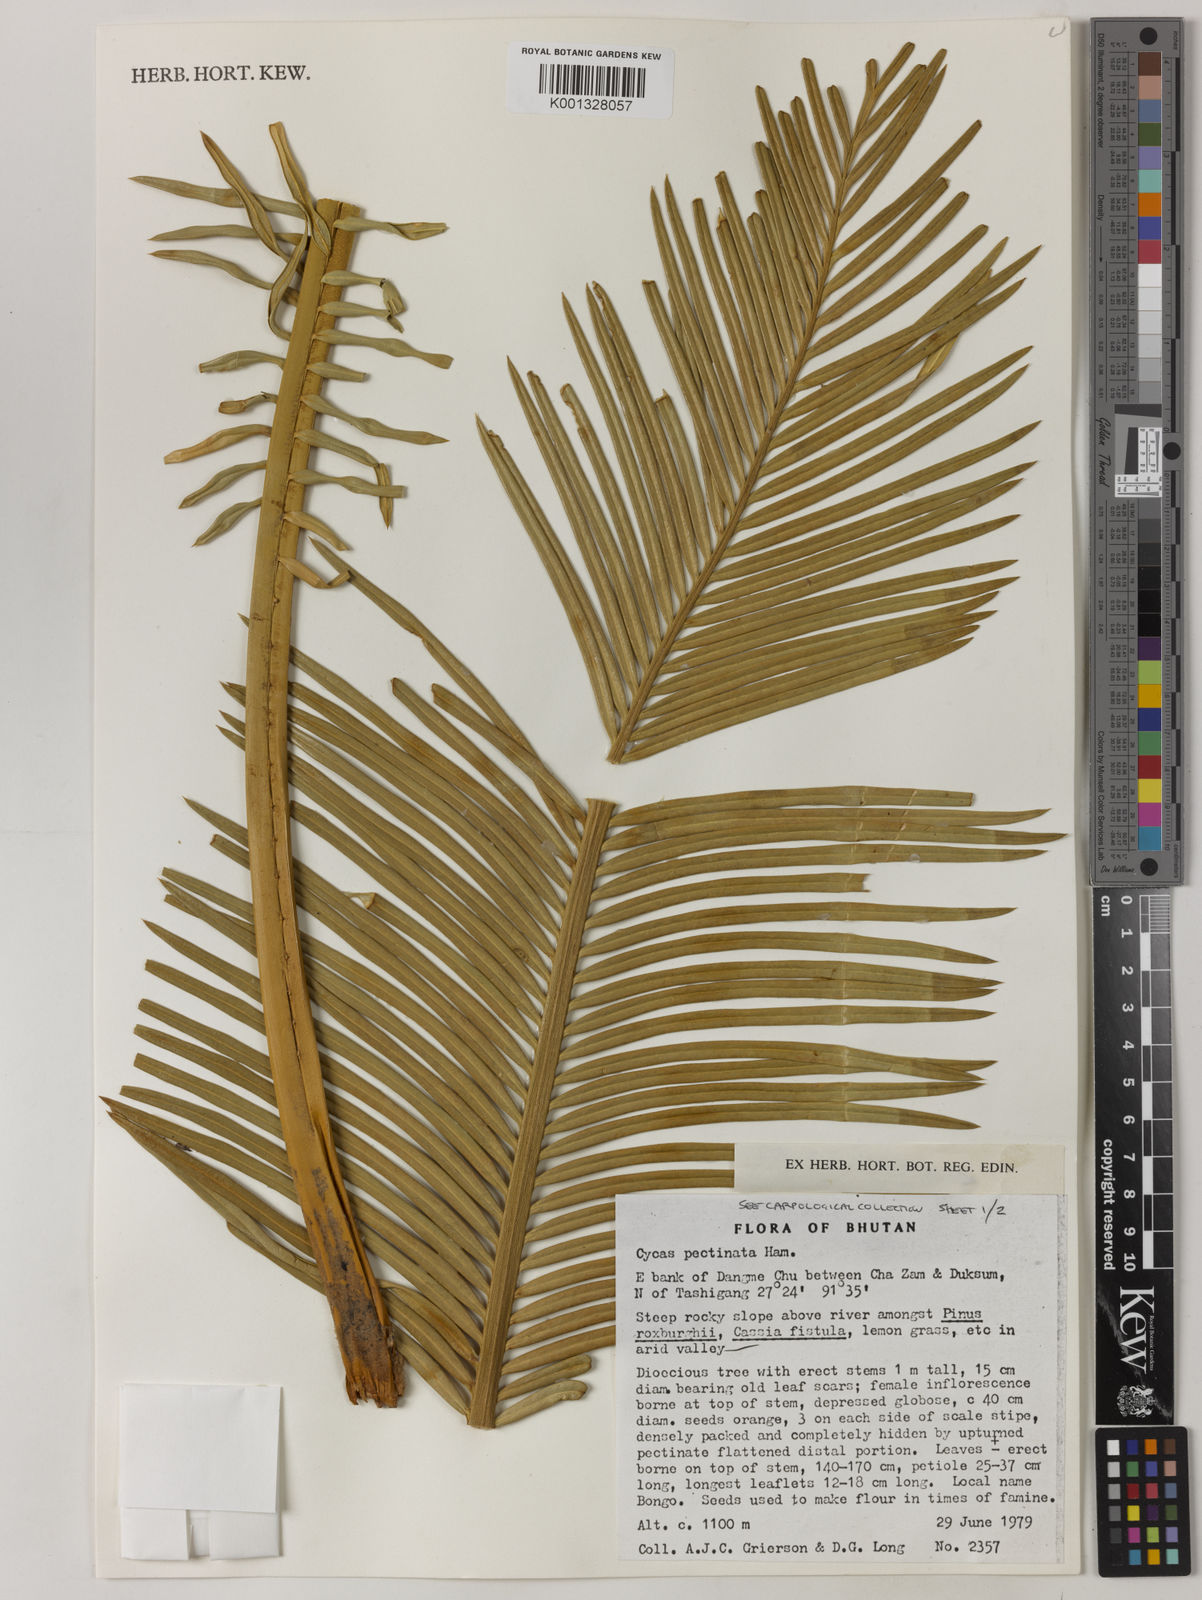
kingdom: Plantae
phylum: Tracheophyta
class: Cycadopsida
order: Cycadales
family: Cycadaceae
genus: Cycas
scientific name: Cycas pectinata
